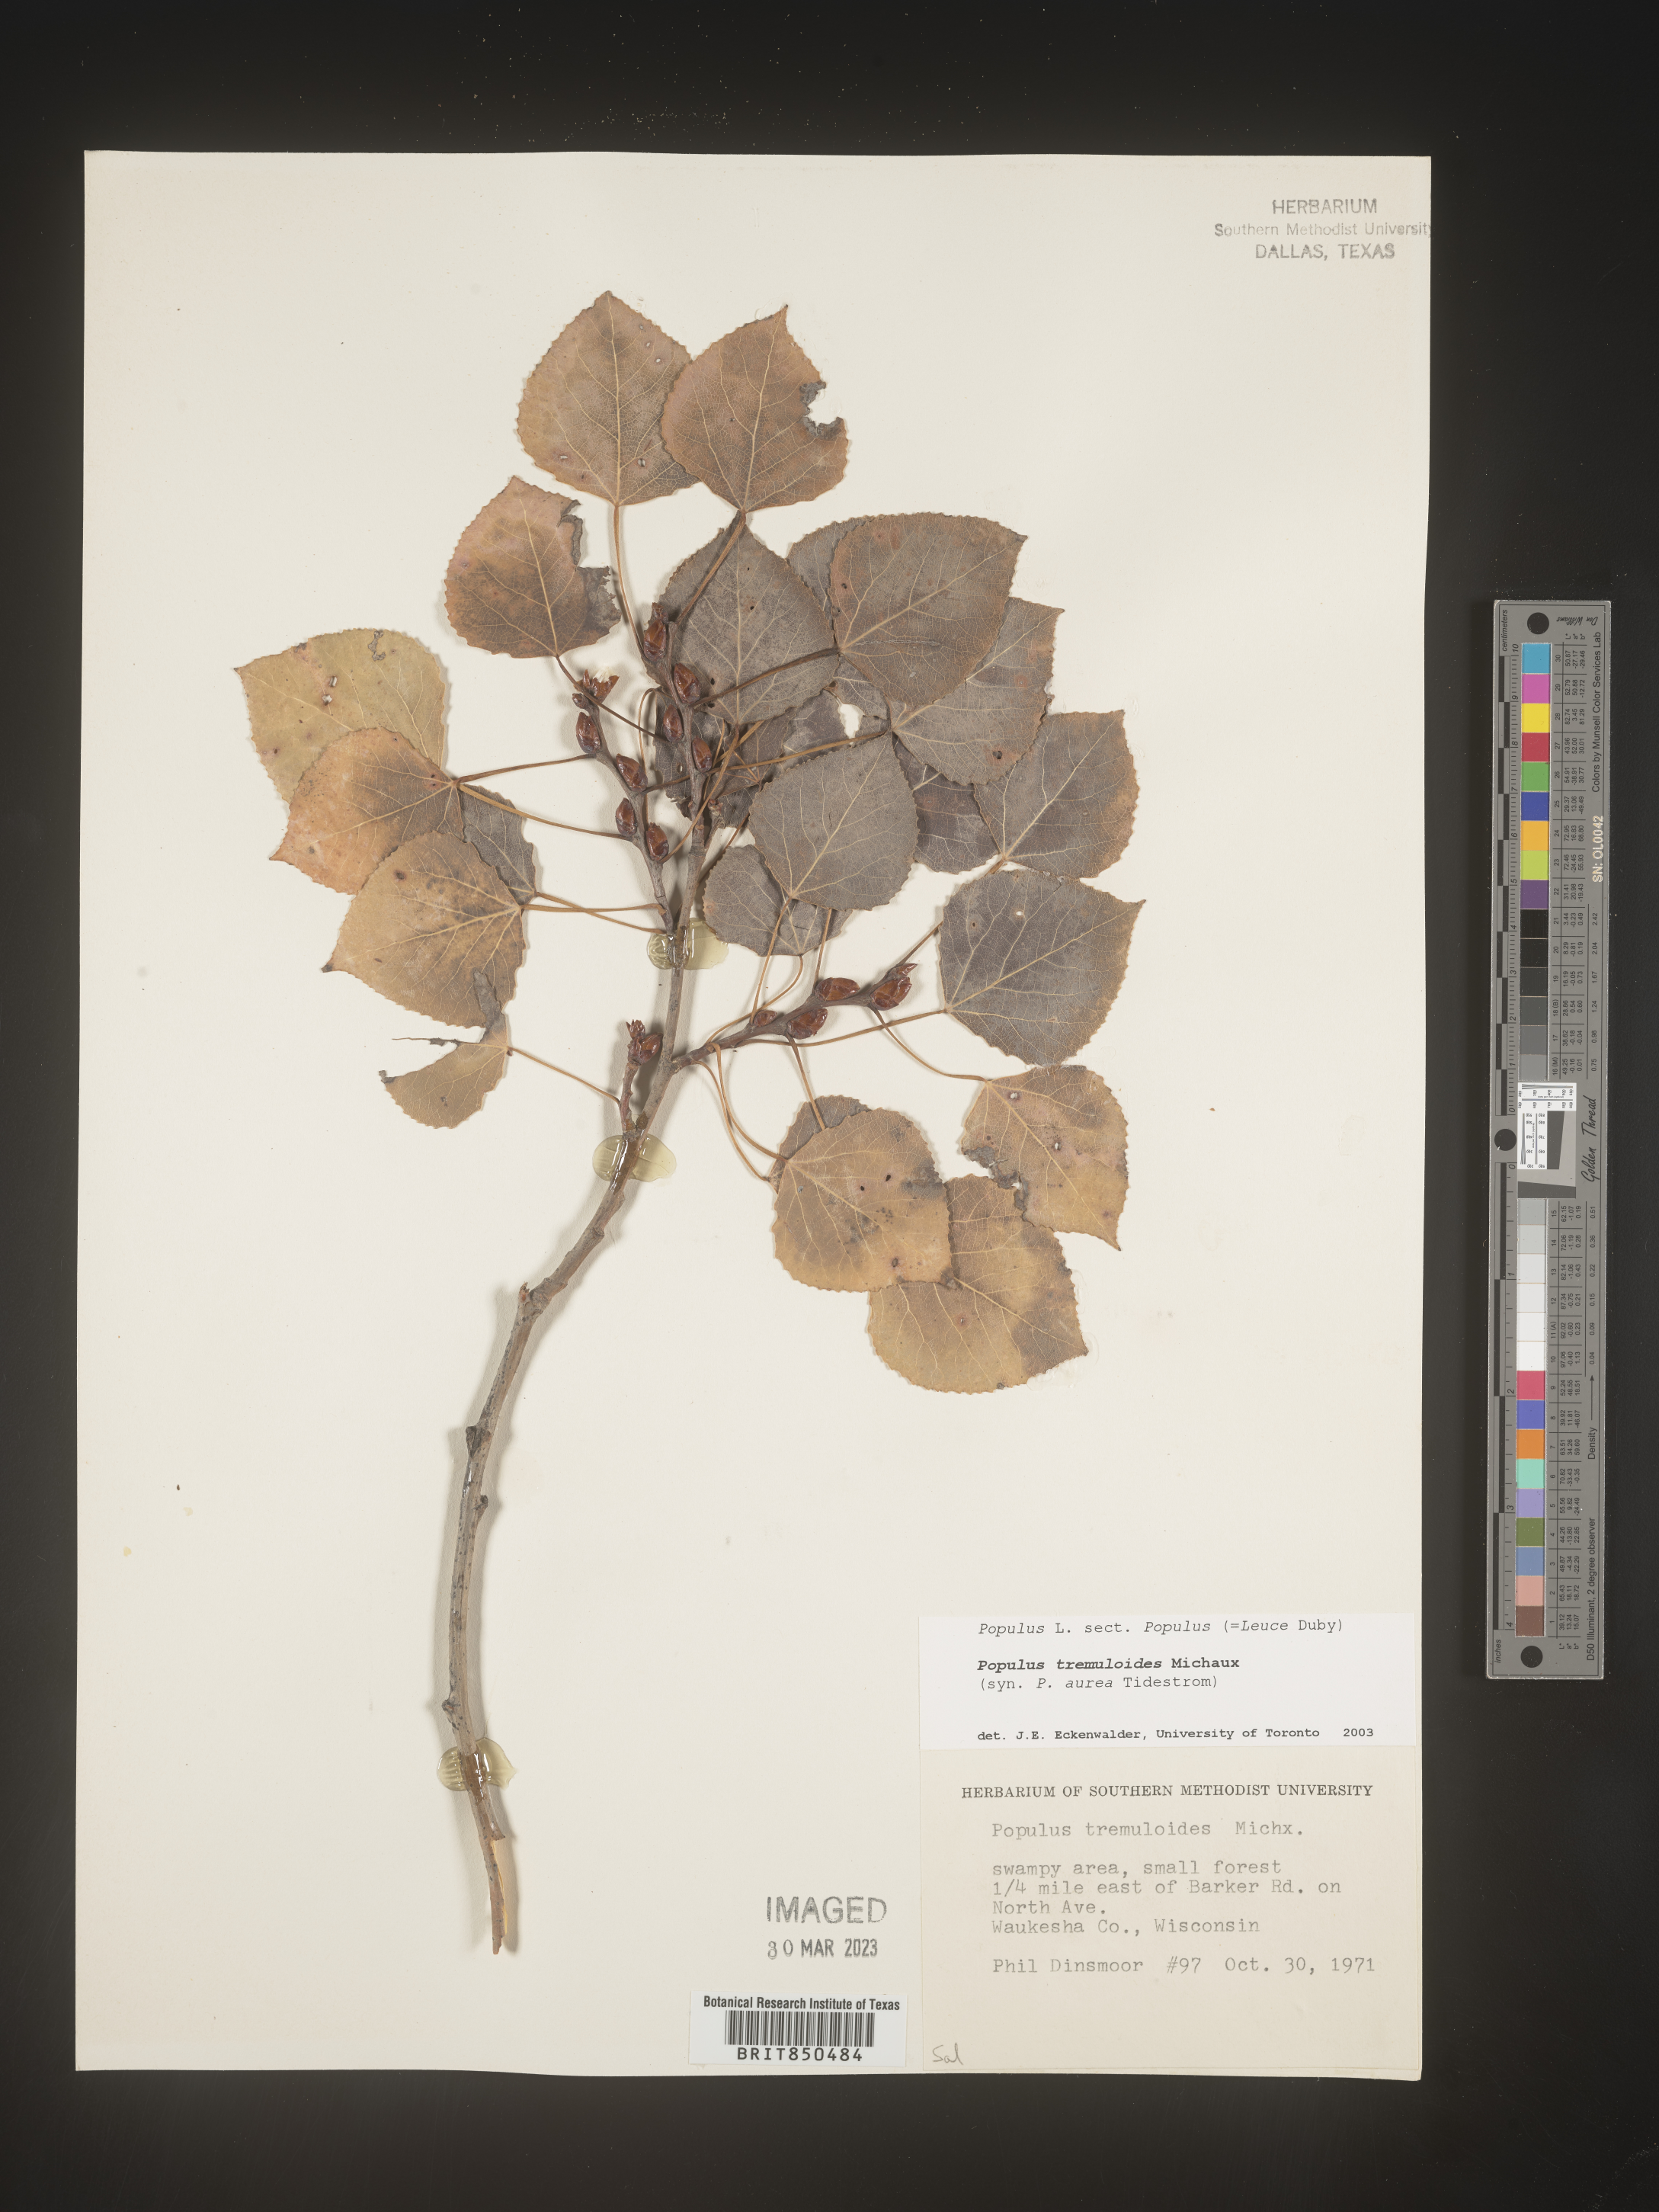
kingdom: Plantae
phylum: Tracheophyta
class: Magnoliopsida
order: Malpighiales
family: Salicaceae
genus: Populus
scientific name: Populus tremuloides
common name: Quaking aspen
